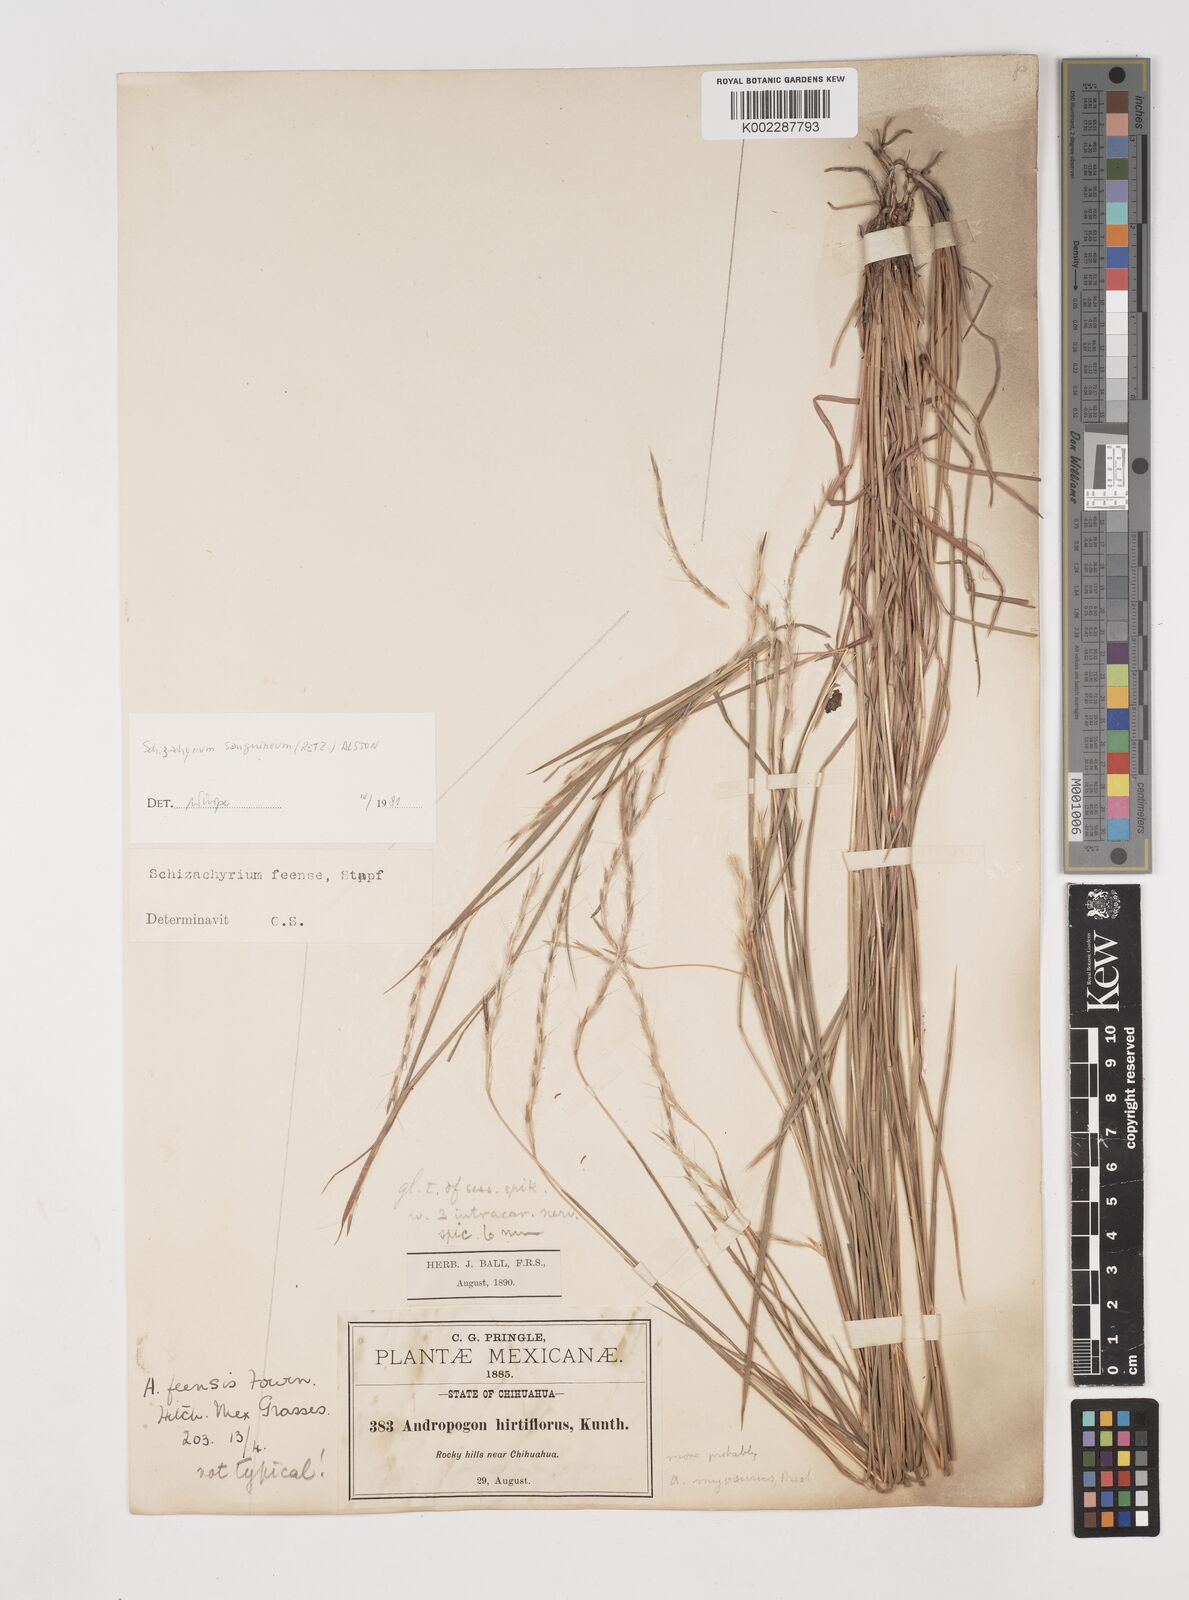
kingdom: Plantae
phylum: Tracheophyta
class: Liliopsida
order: Poales
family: Poaceae
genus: Schizachyrium
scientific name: Schizachyrium sanguineum
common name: Crimson bluestem
